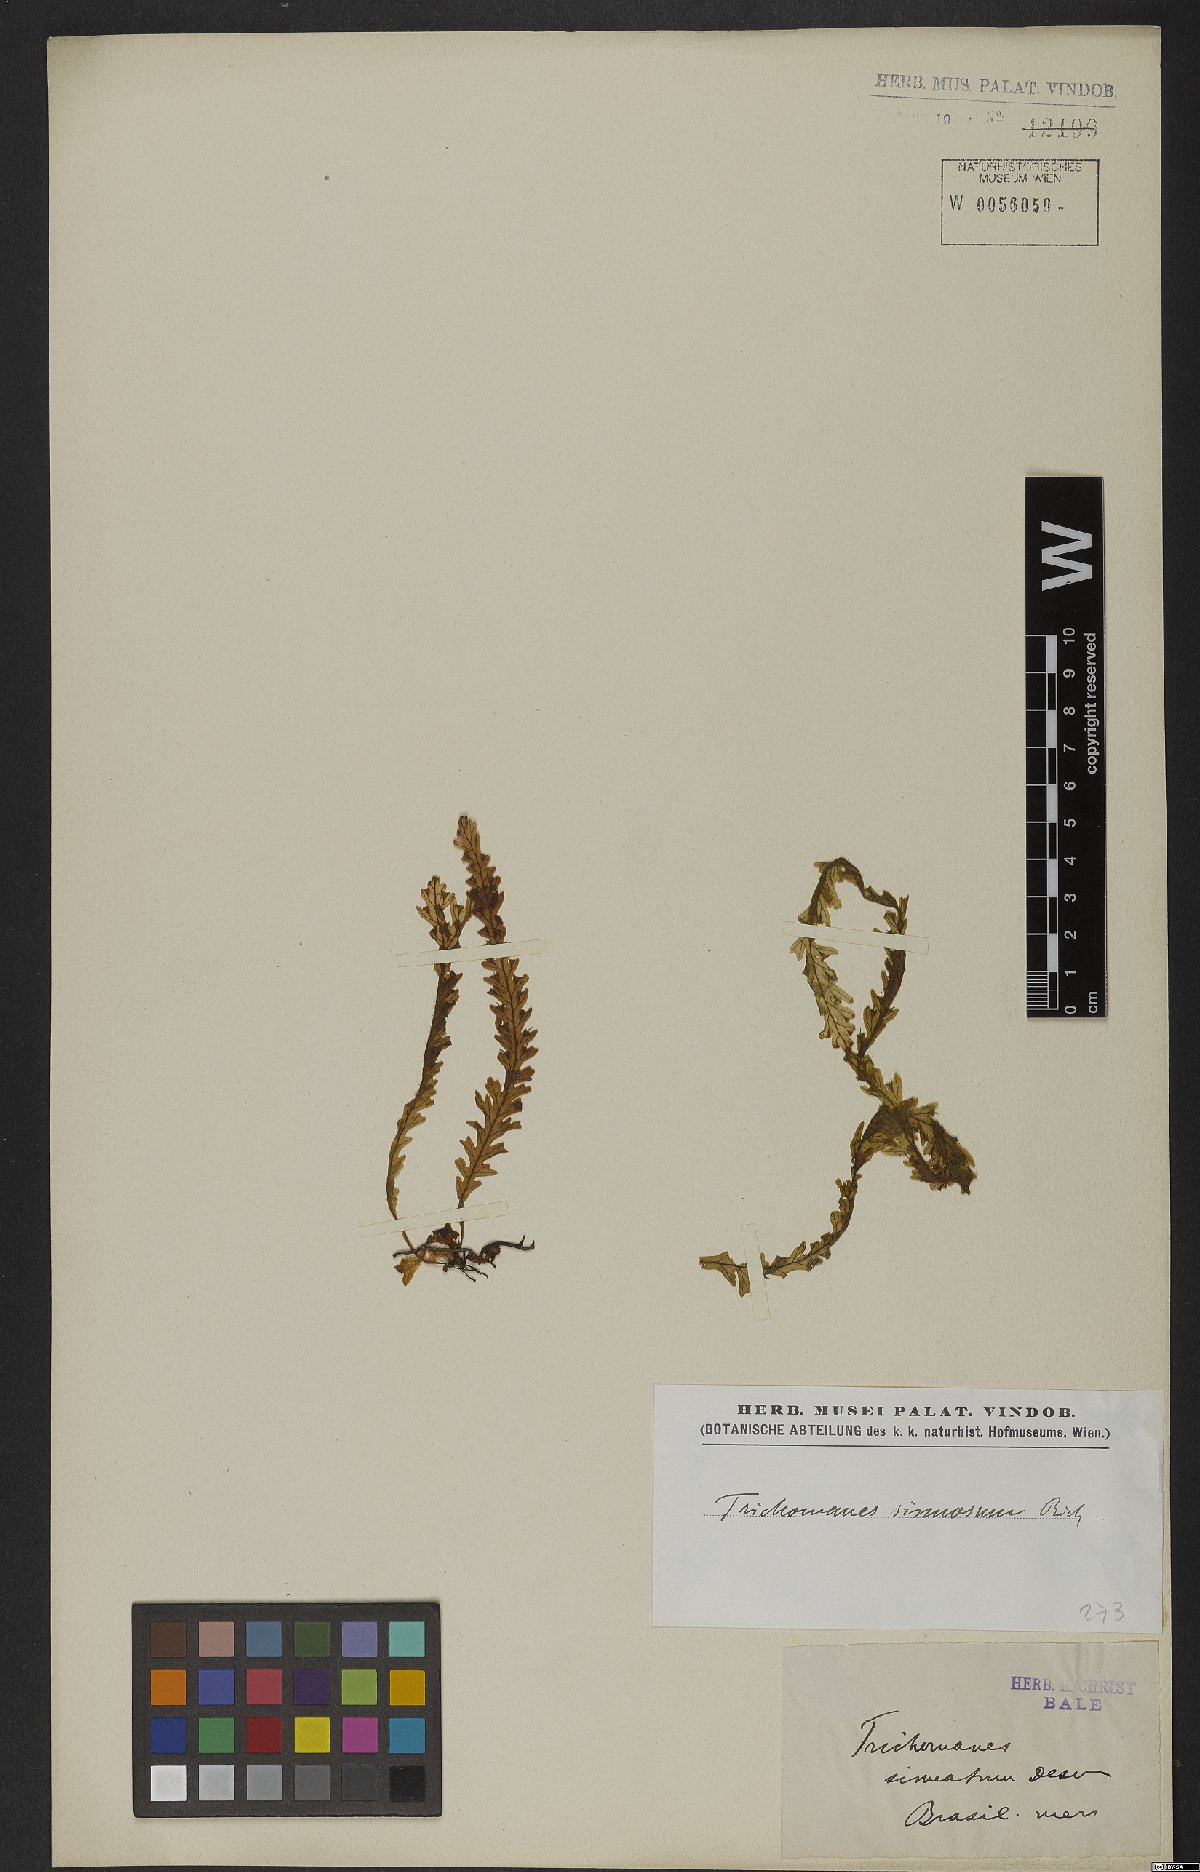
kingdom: Plantae
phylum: Tracheophyta
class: Polypodiopsida
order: Hymenophyllales
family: Hymenophyllaceae
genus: Trichomanes
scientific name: Trichomanes polypodioides
